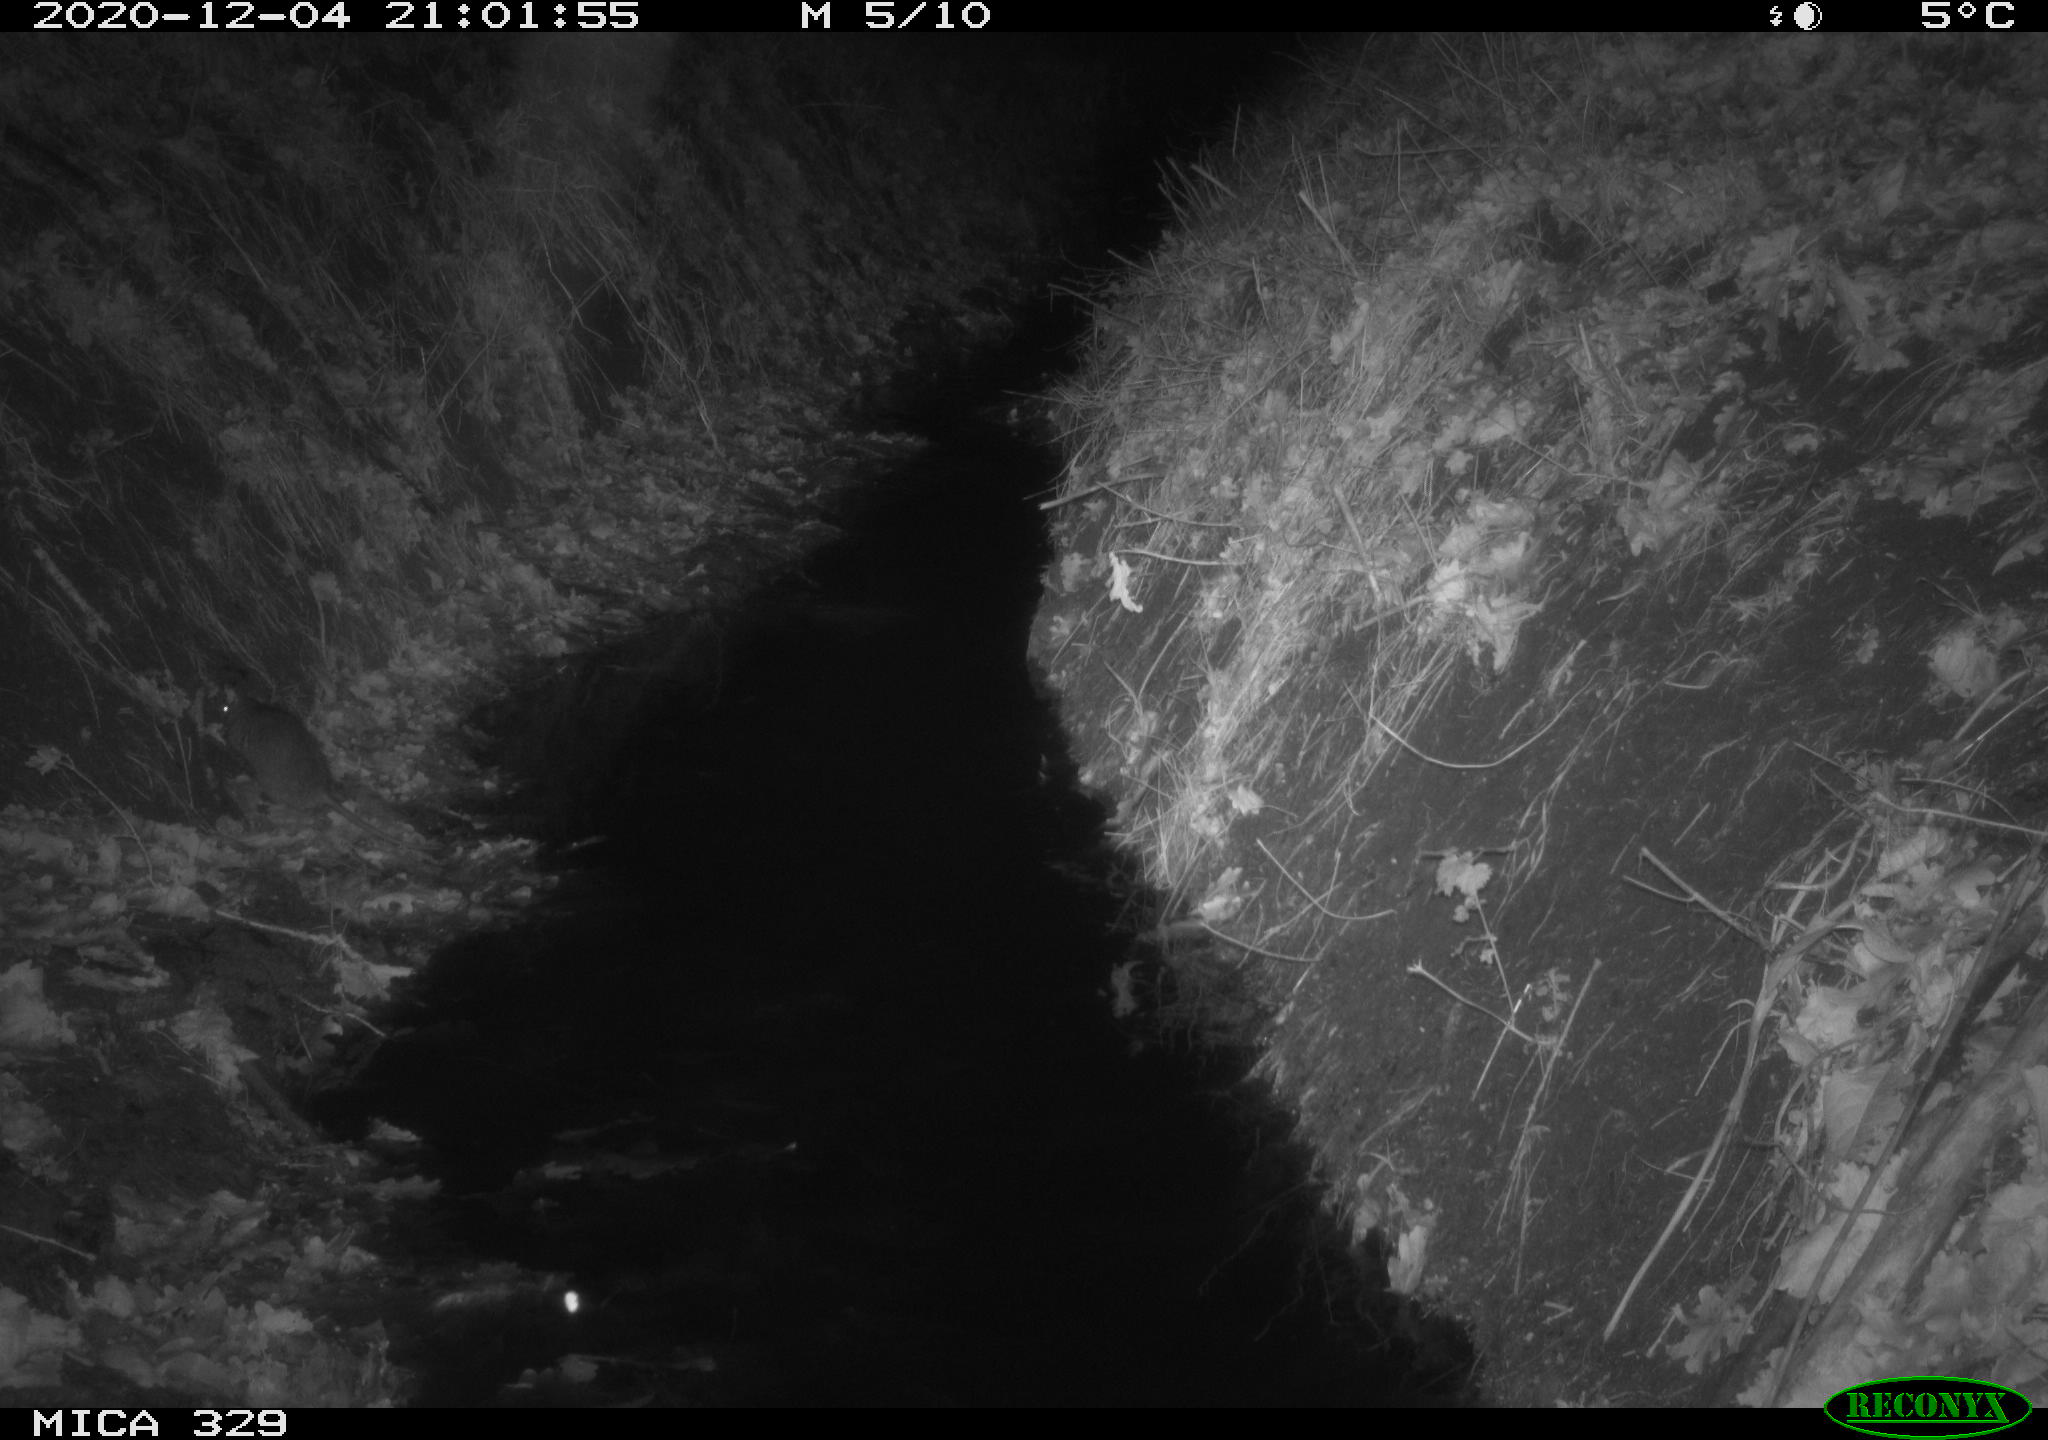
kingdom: Animalia
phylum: Chordata
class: Mammalia
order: Rodentia
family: Muridae
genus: Rattus
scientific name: Rattus norvegicus
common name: Brown rat
